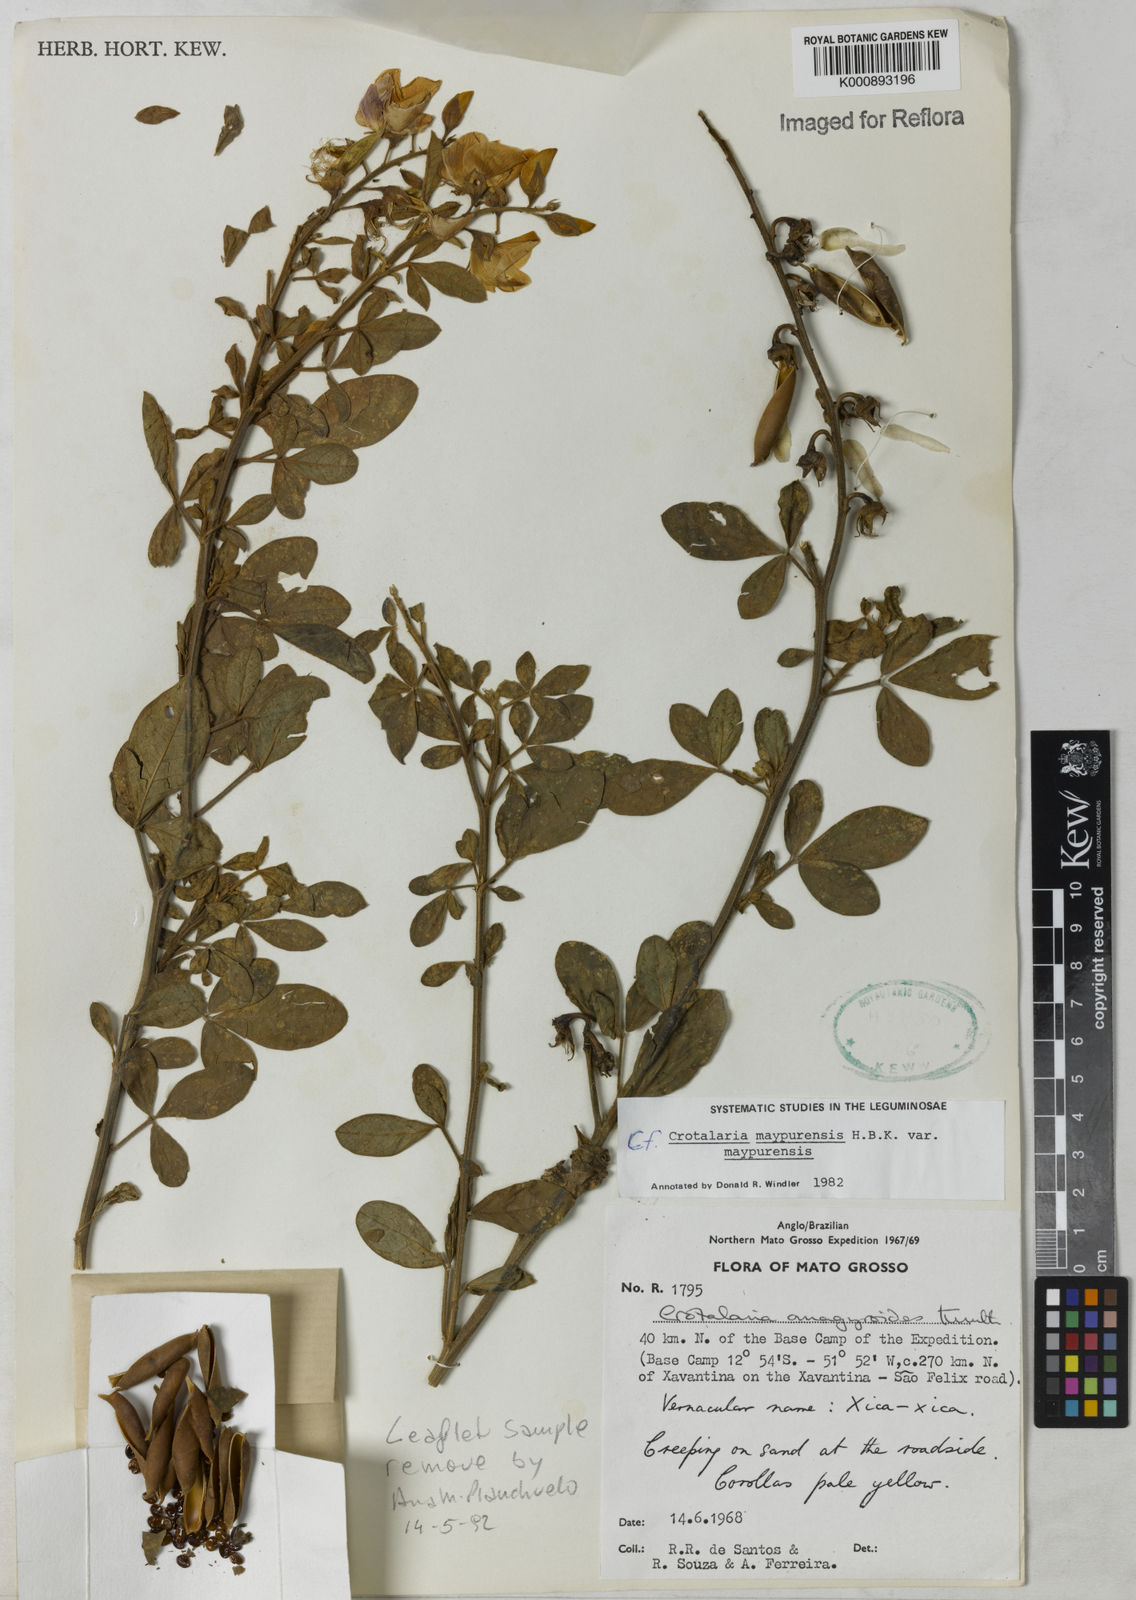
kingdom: Plantae
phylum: Tracheophyta
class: Magnoliopsida
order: Fabales
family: Fabaceae
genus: Crotalaria
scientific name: Crotalaria maypurensis
